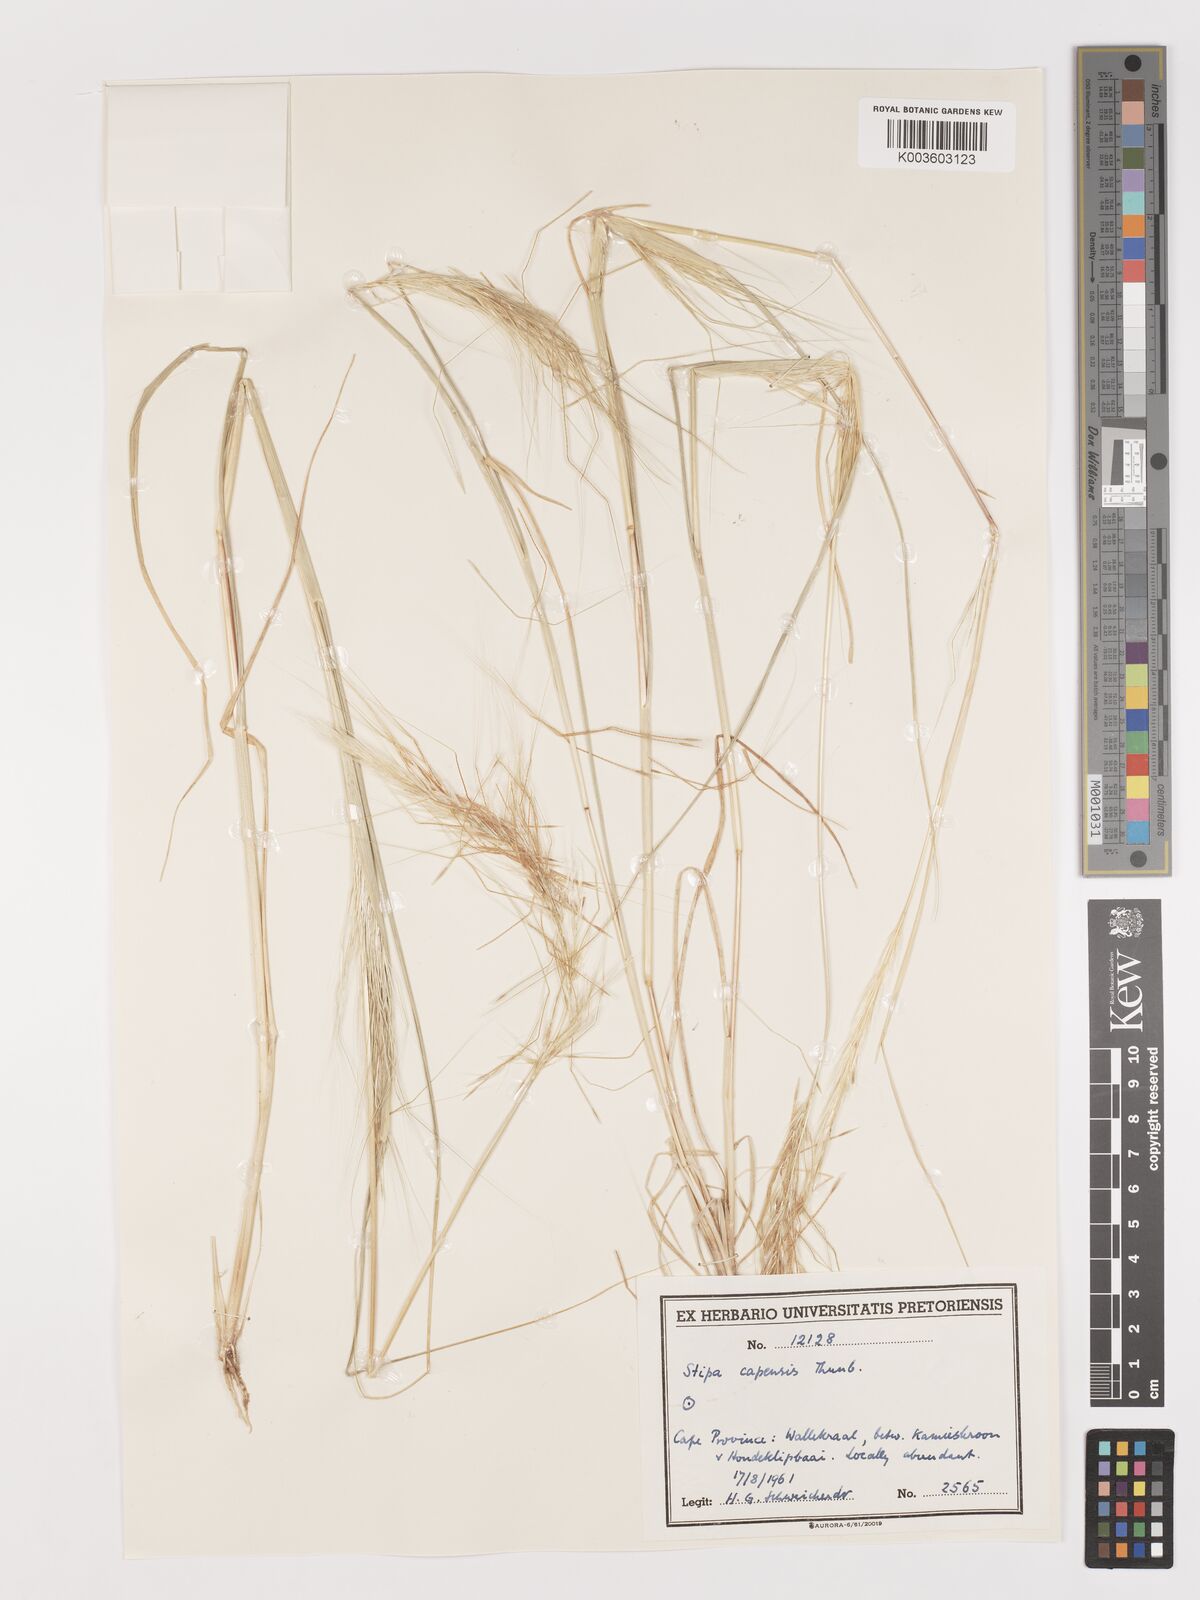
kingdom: Plantae
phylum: Tracheophyta
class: Liliopsida
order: Poales
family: Poaceae
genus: Stipellula
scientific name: Stipellula capensis
